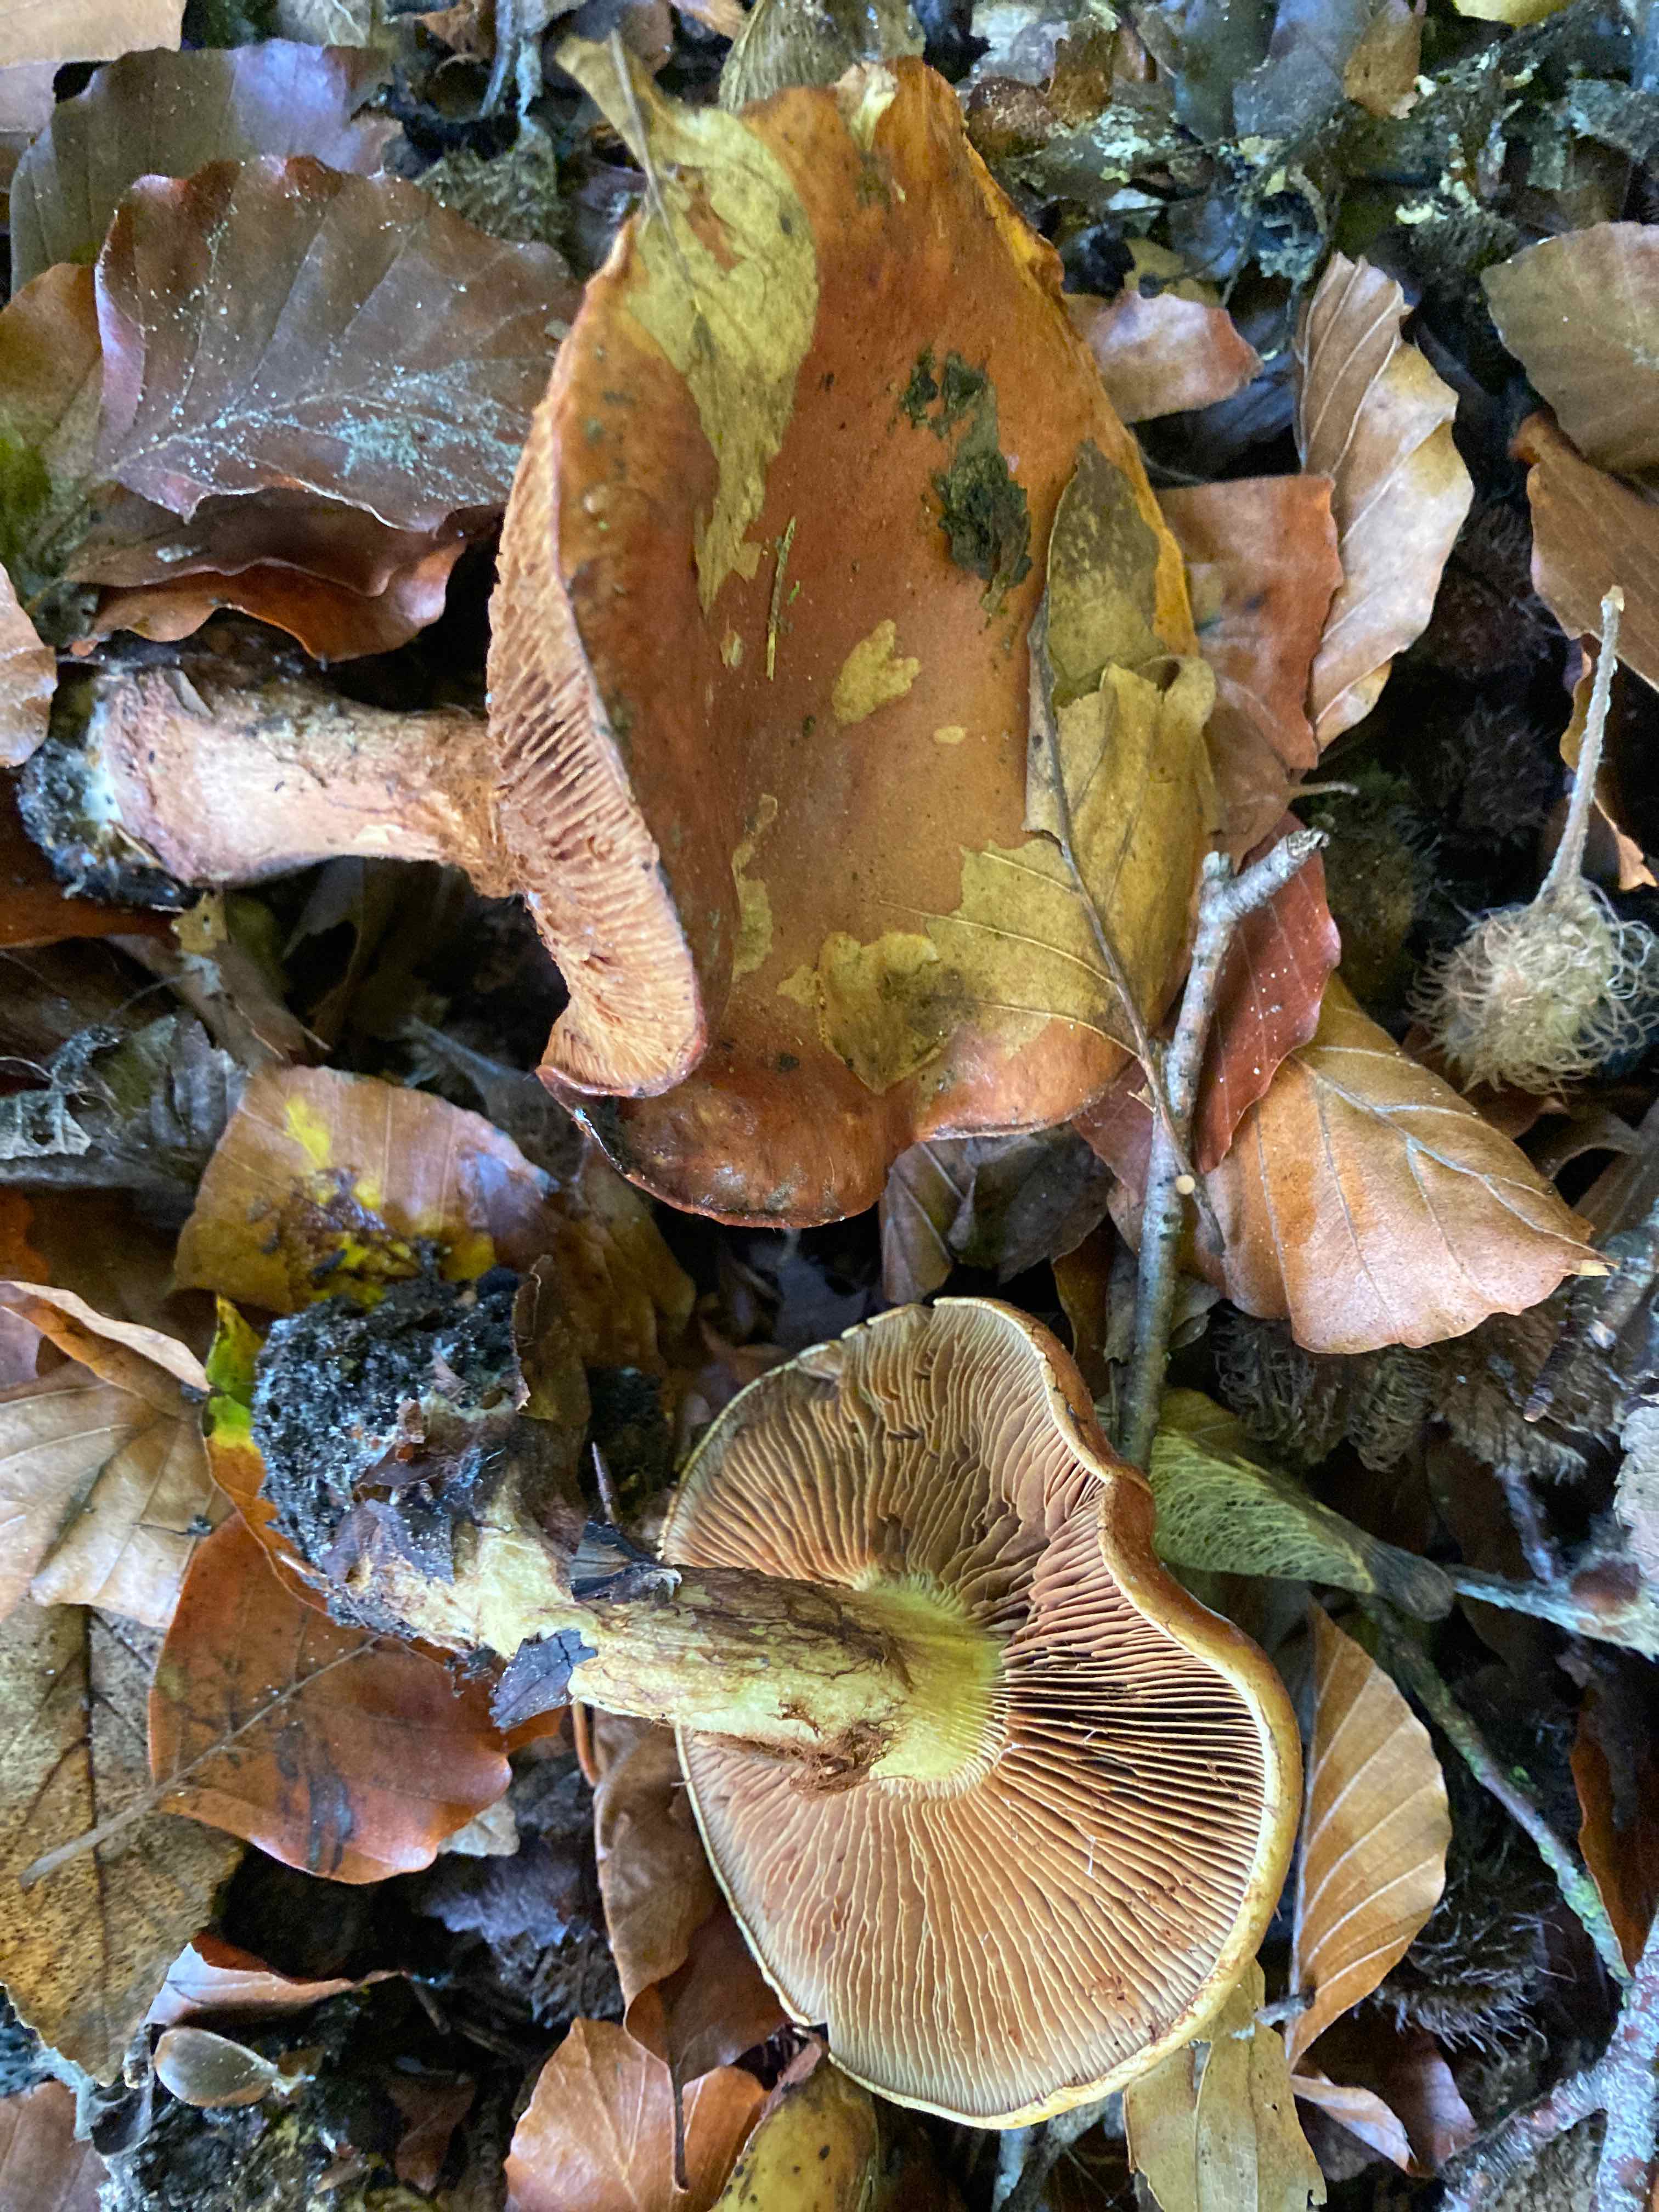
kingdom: Fungi
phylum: Basidiomycota
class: Agaricomycetes
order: Agaricales
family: Cortinariaceae
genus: Calonarius
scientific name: Calonarius elegantissimus
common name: orangegylden slørhat
